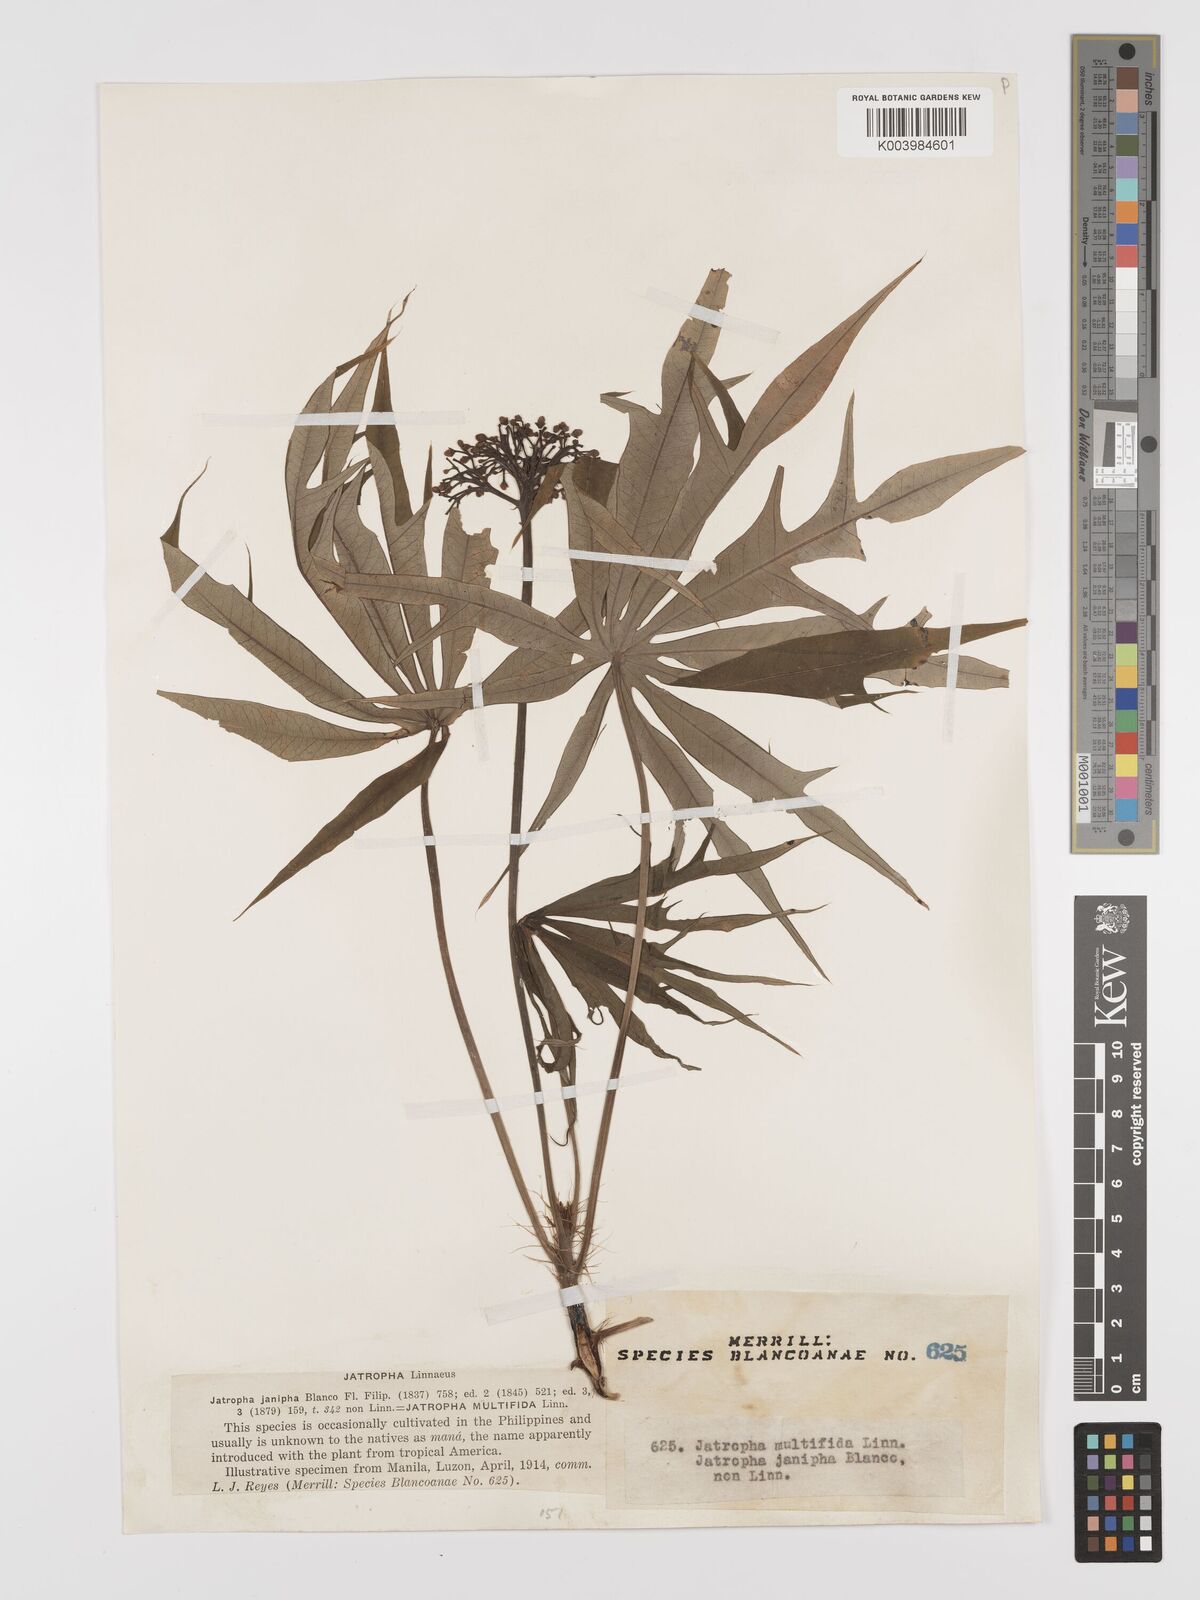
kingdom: Plantae
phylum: Tracheophyta
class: Magnoliopsida
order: Malpighiales
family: Euphorbiaceae
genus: Jatropha
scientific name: Jatropha multifida
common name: Coralbush
